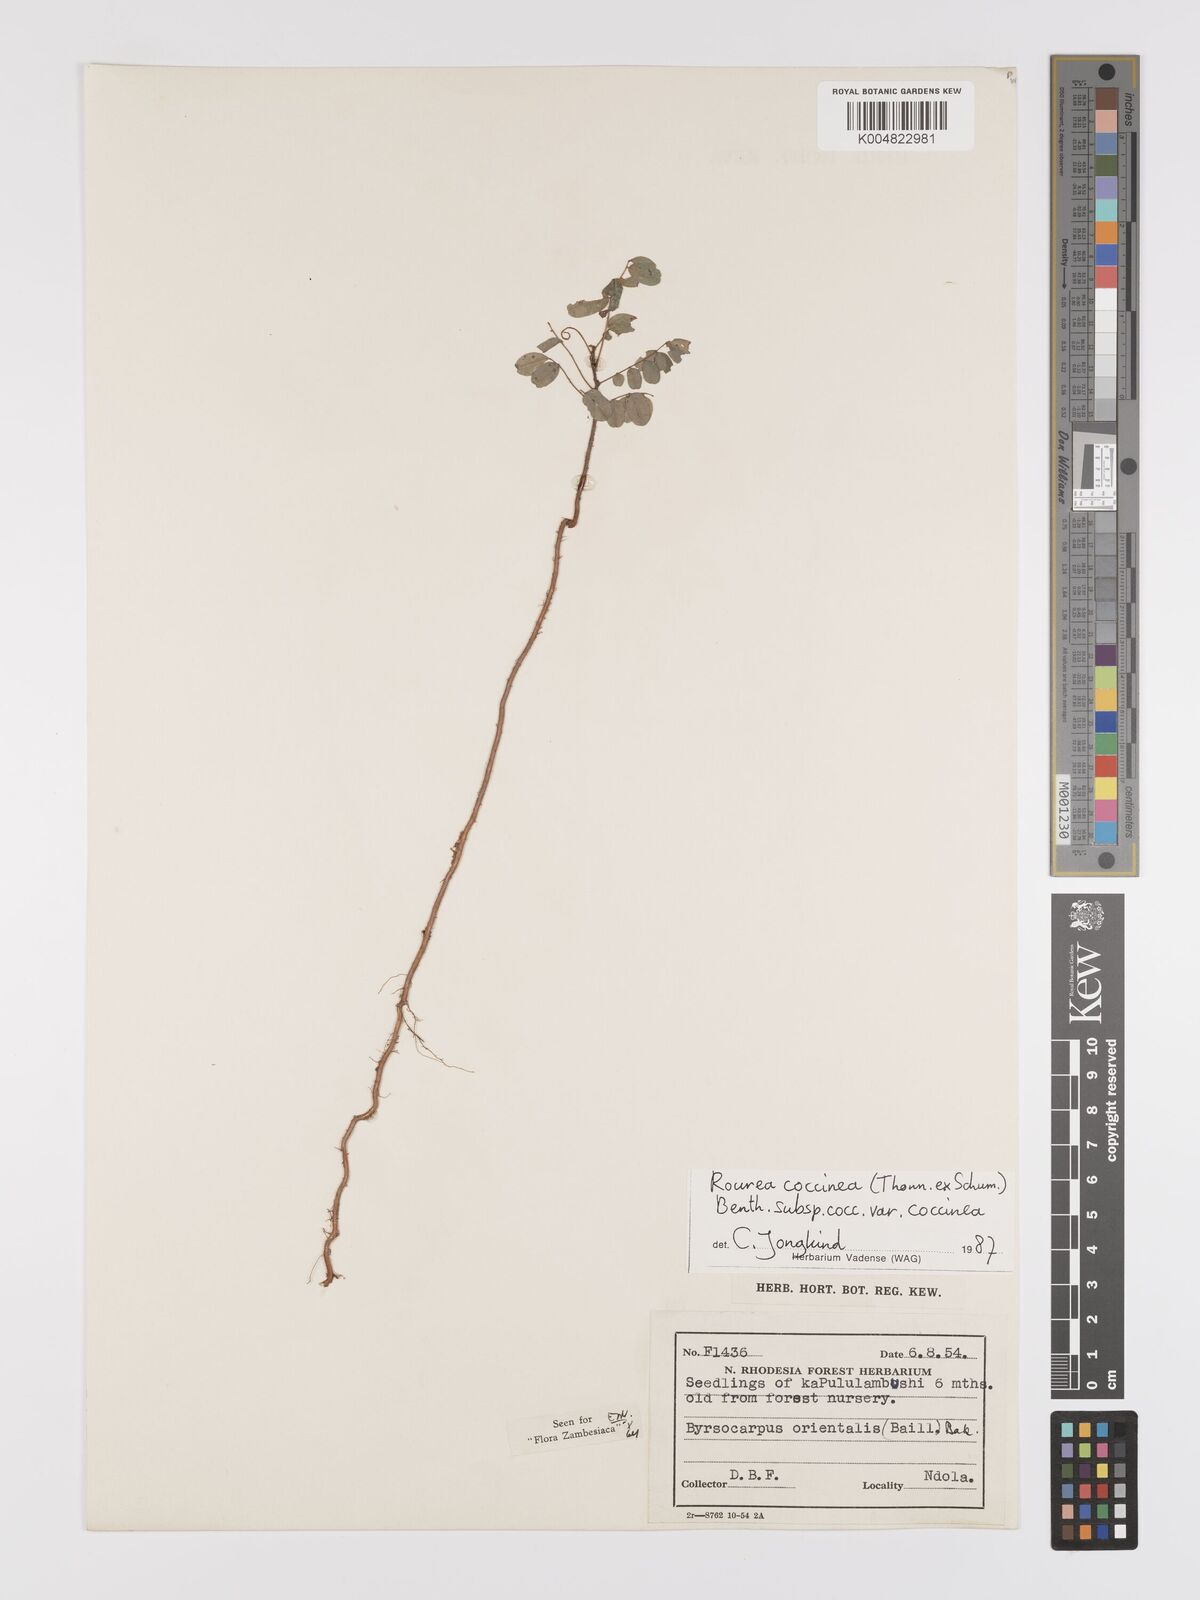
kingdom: Plantae
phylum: Tracheophyta
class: Magnoliopsida
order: Oxalidales
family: Connaraceae
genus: Rourea
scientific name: Rourea orientalis
